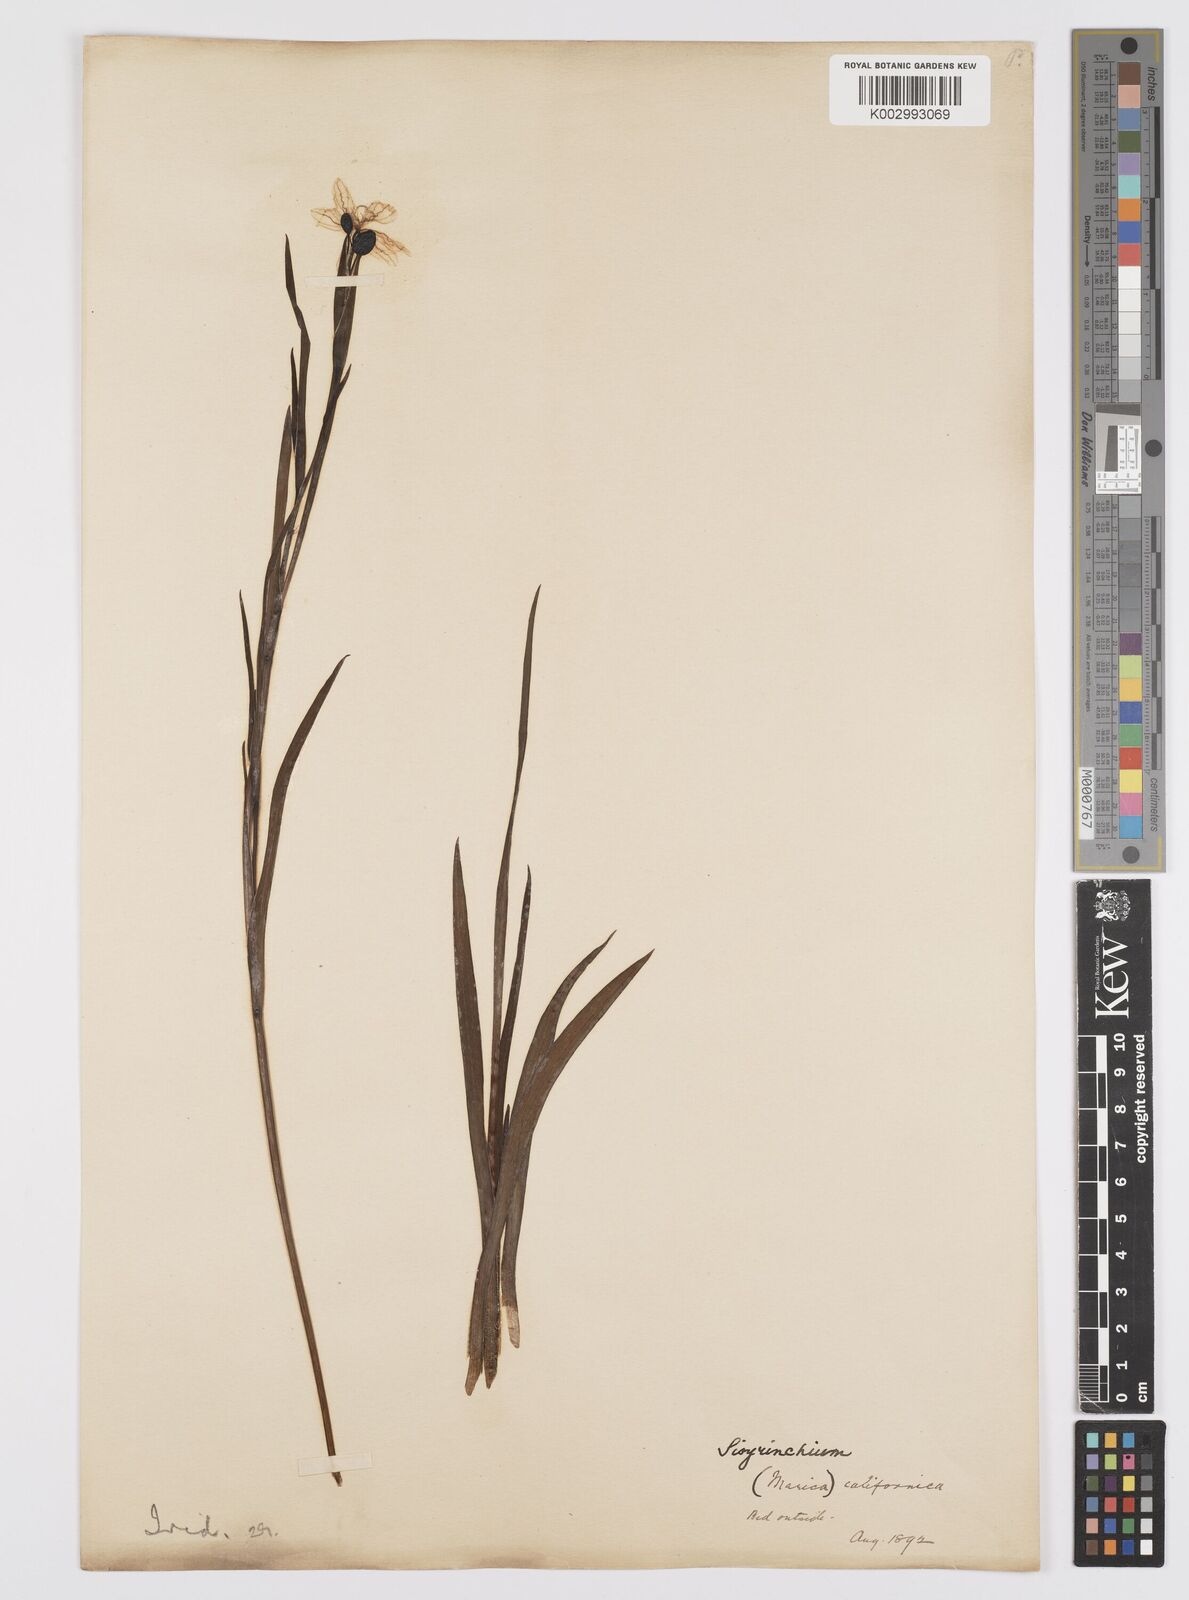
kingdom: Plantae
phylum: Tracheophyta
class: Liliopsida
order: Asparagales
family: Iridaceae
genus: Sisyrinchium
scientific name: Sisyrinchium californicum
